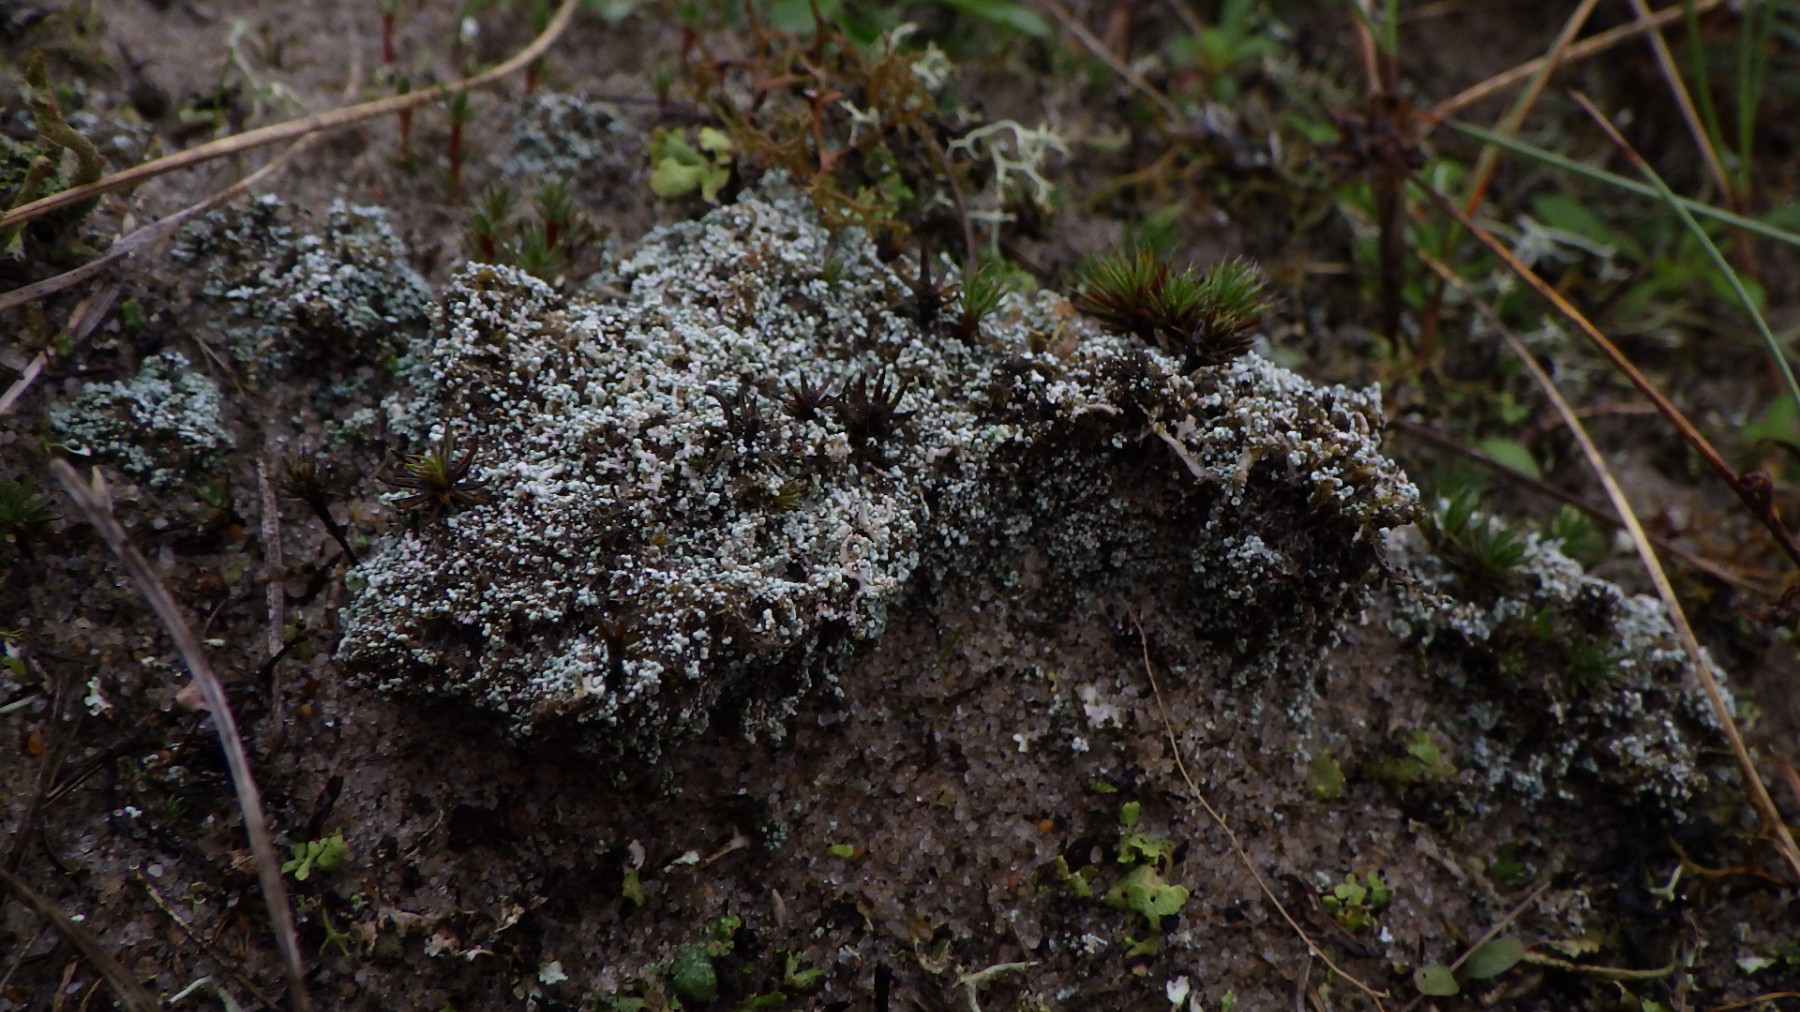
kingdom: Fungi
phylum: Ascomycota
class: Lecanoromycetes
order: Lecanorales
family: Stereocaulaceae
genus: Stereocaulon
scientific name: Stereocaulon condensatum
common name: lav korallav
